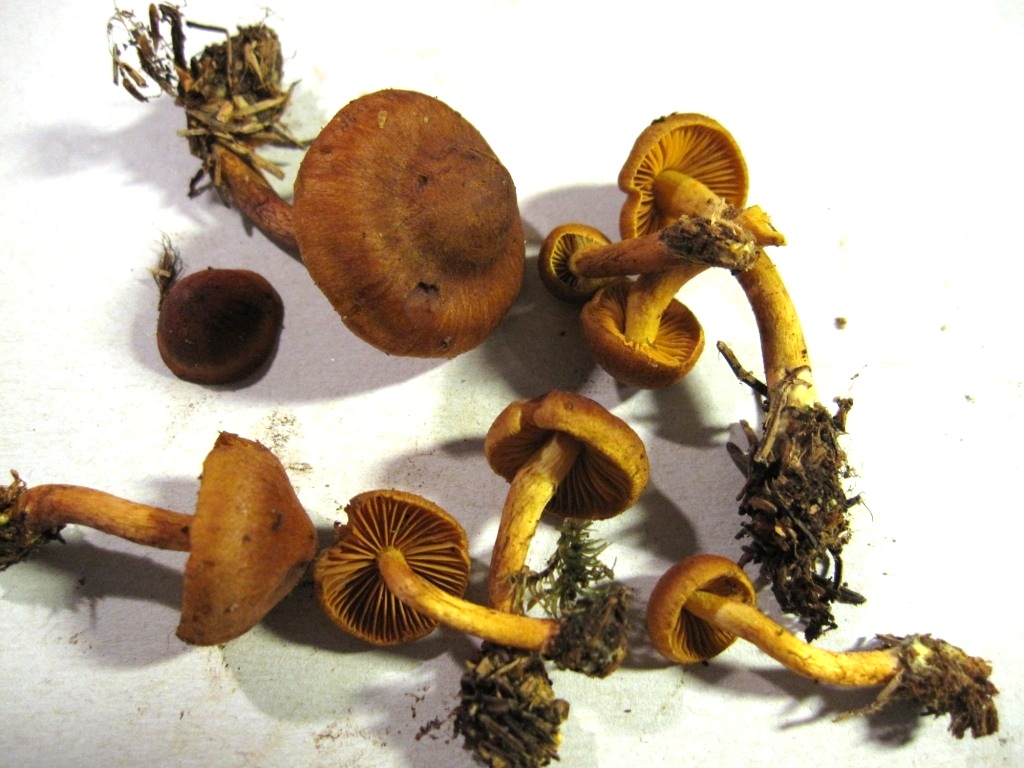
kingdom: Fungi
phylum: Basidiomycota
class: Agaricomycetes
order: Agaricales
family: Cortinariaceae
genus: Cortinarius
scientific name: Cortinarius cinnamomeus
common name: kanel-slørhat
